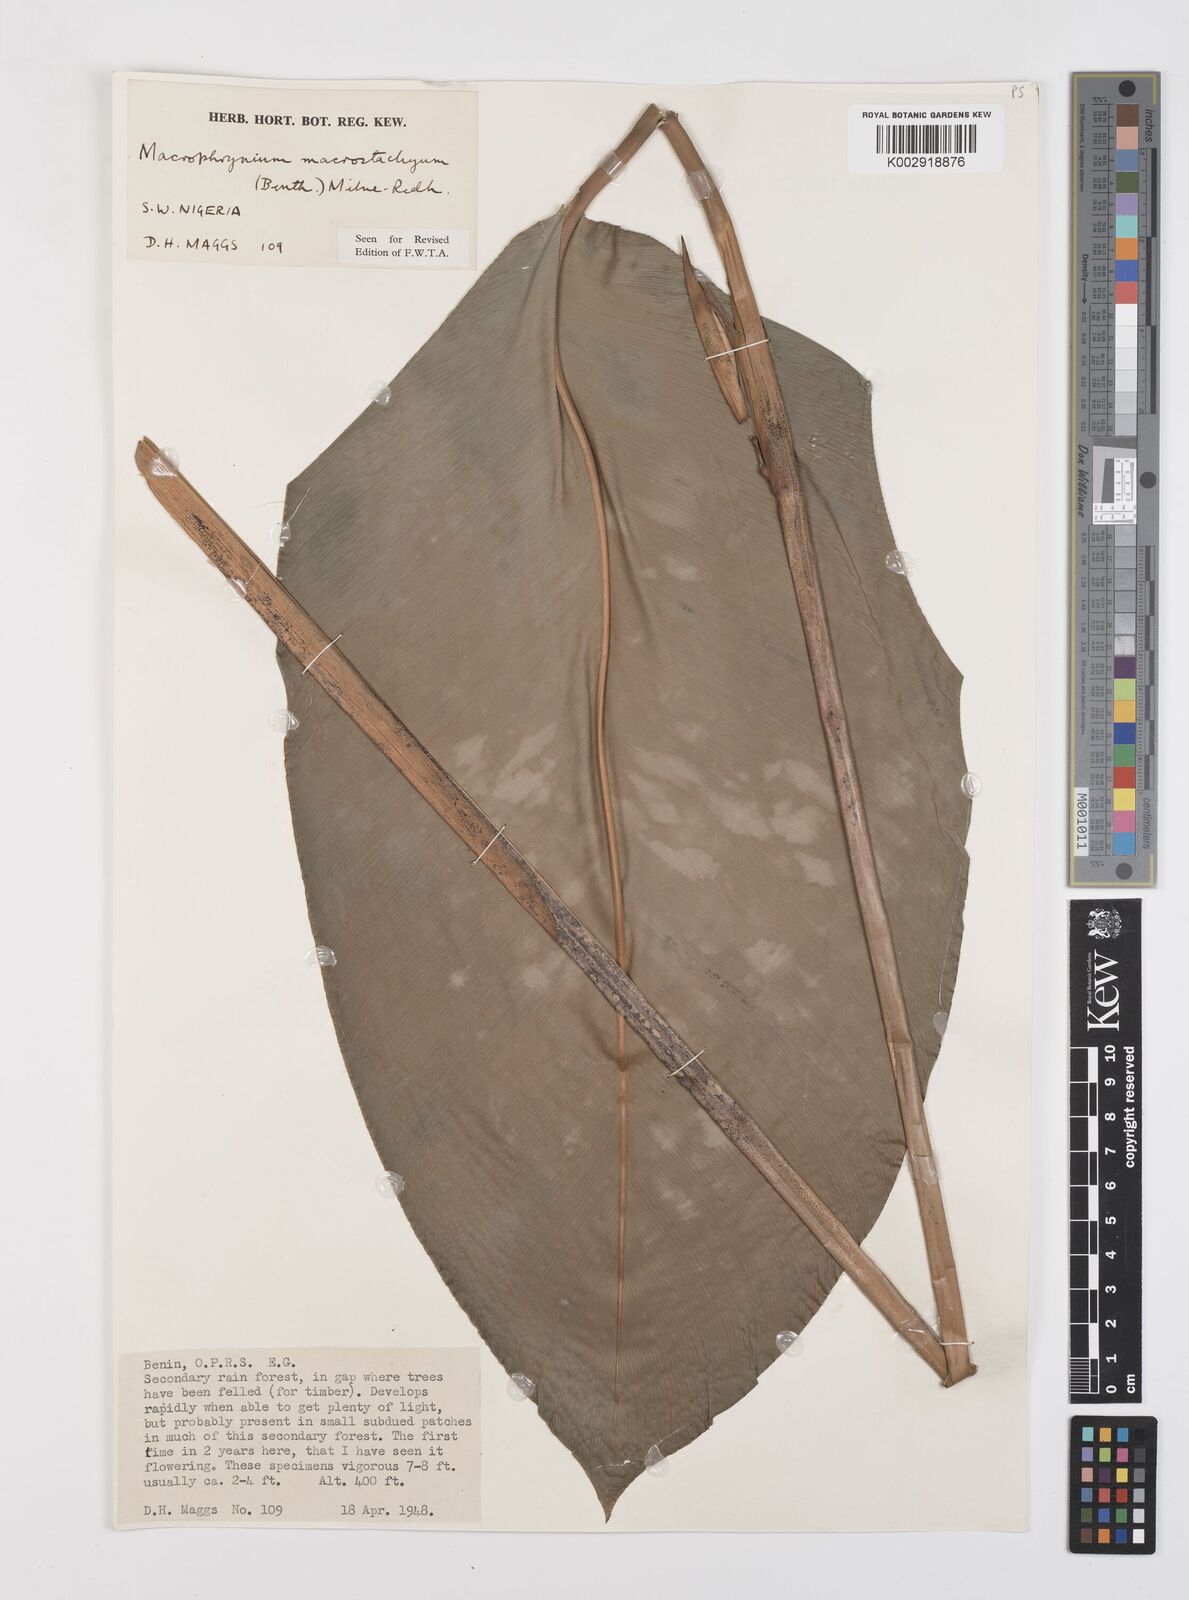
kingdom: Plantae
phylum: Tracheophyta
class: Liliopsida
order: Zingiberales
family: Marantaceae
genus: Megaphrynium
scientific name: Megaphrynium macrostachyum
